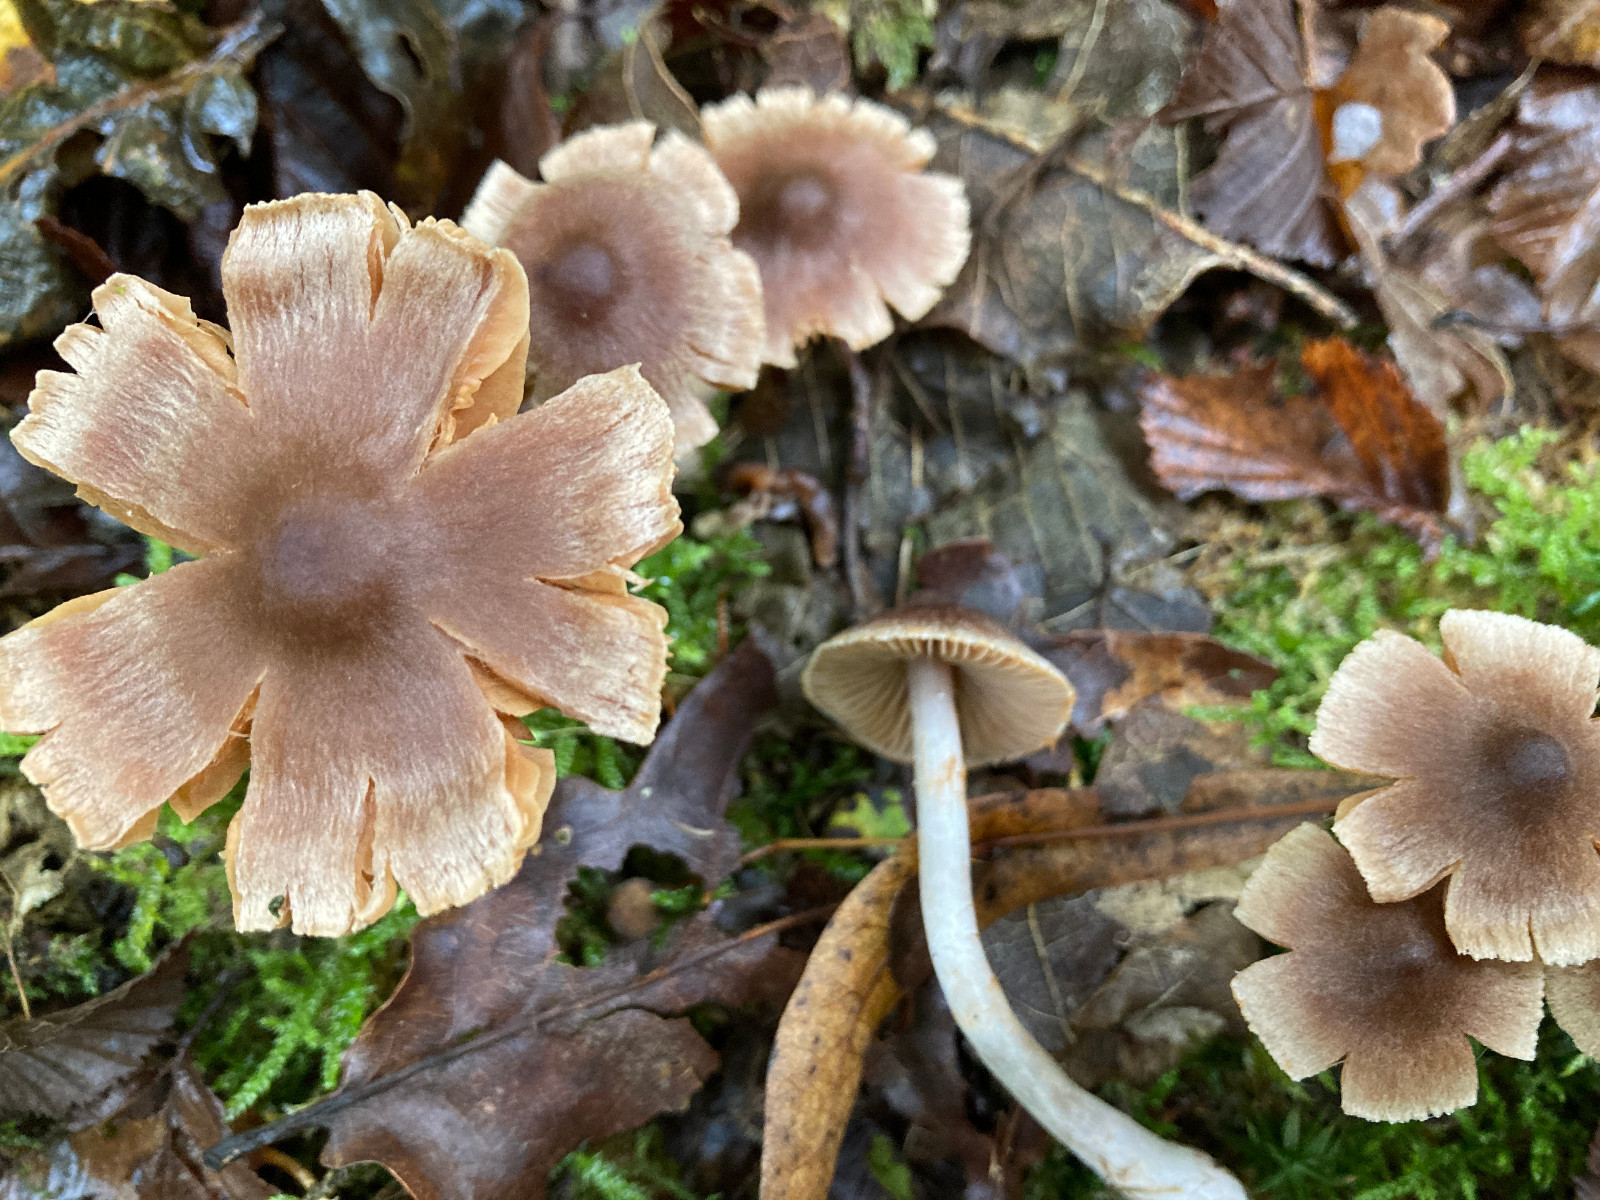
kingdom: Fungi
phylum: Basidiomycota
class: Agaricomycetes
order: Agaricales
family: Cortinariaceae
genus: Cortinarius
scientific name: Cortinarius
